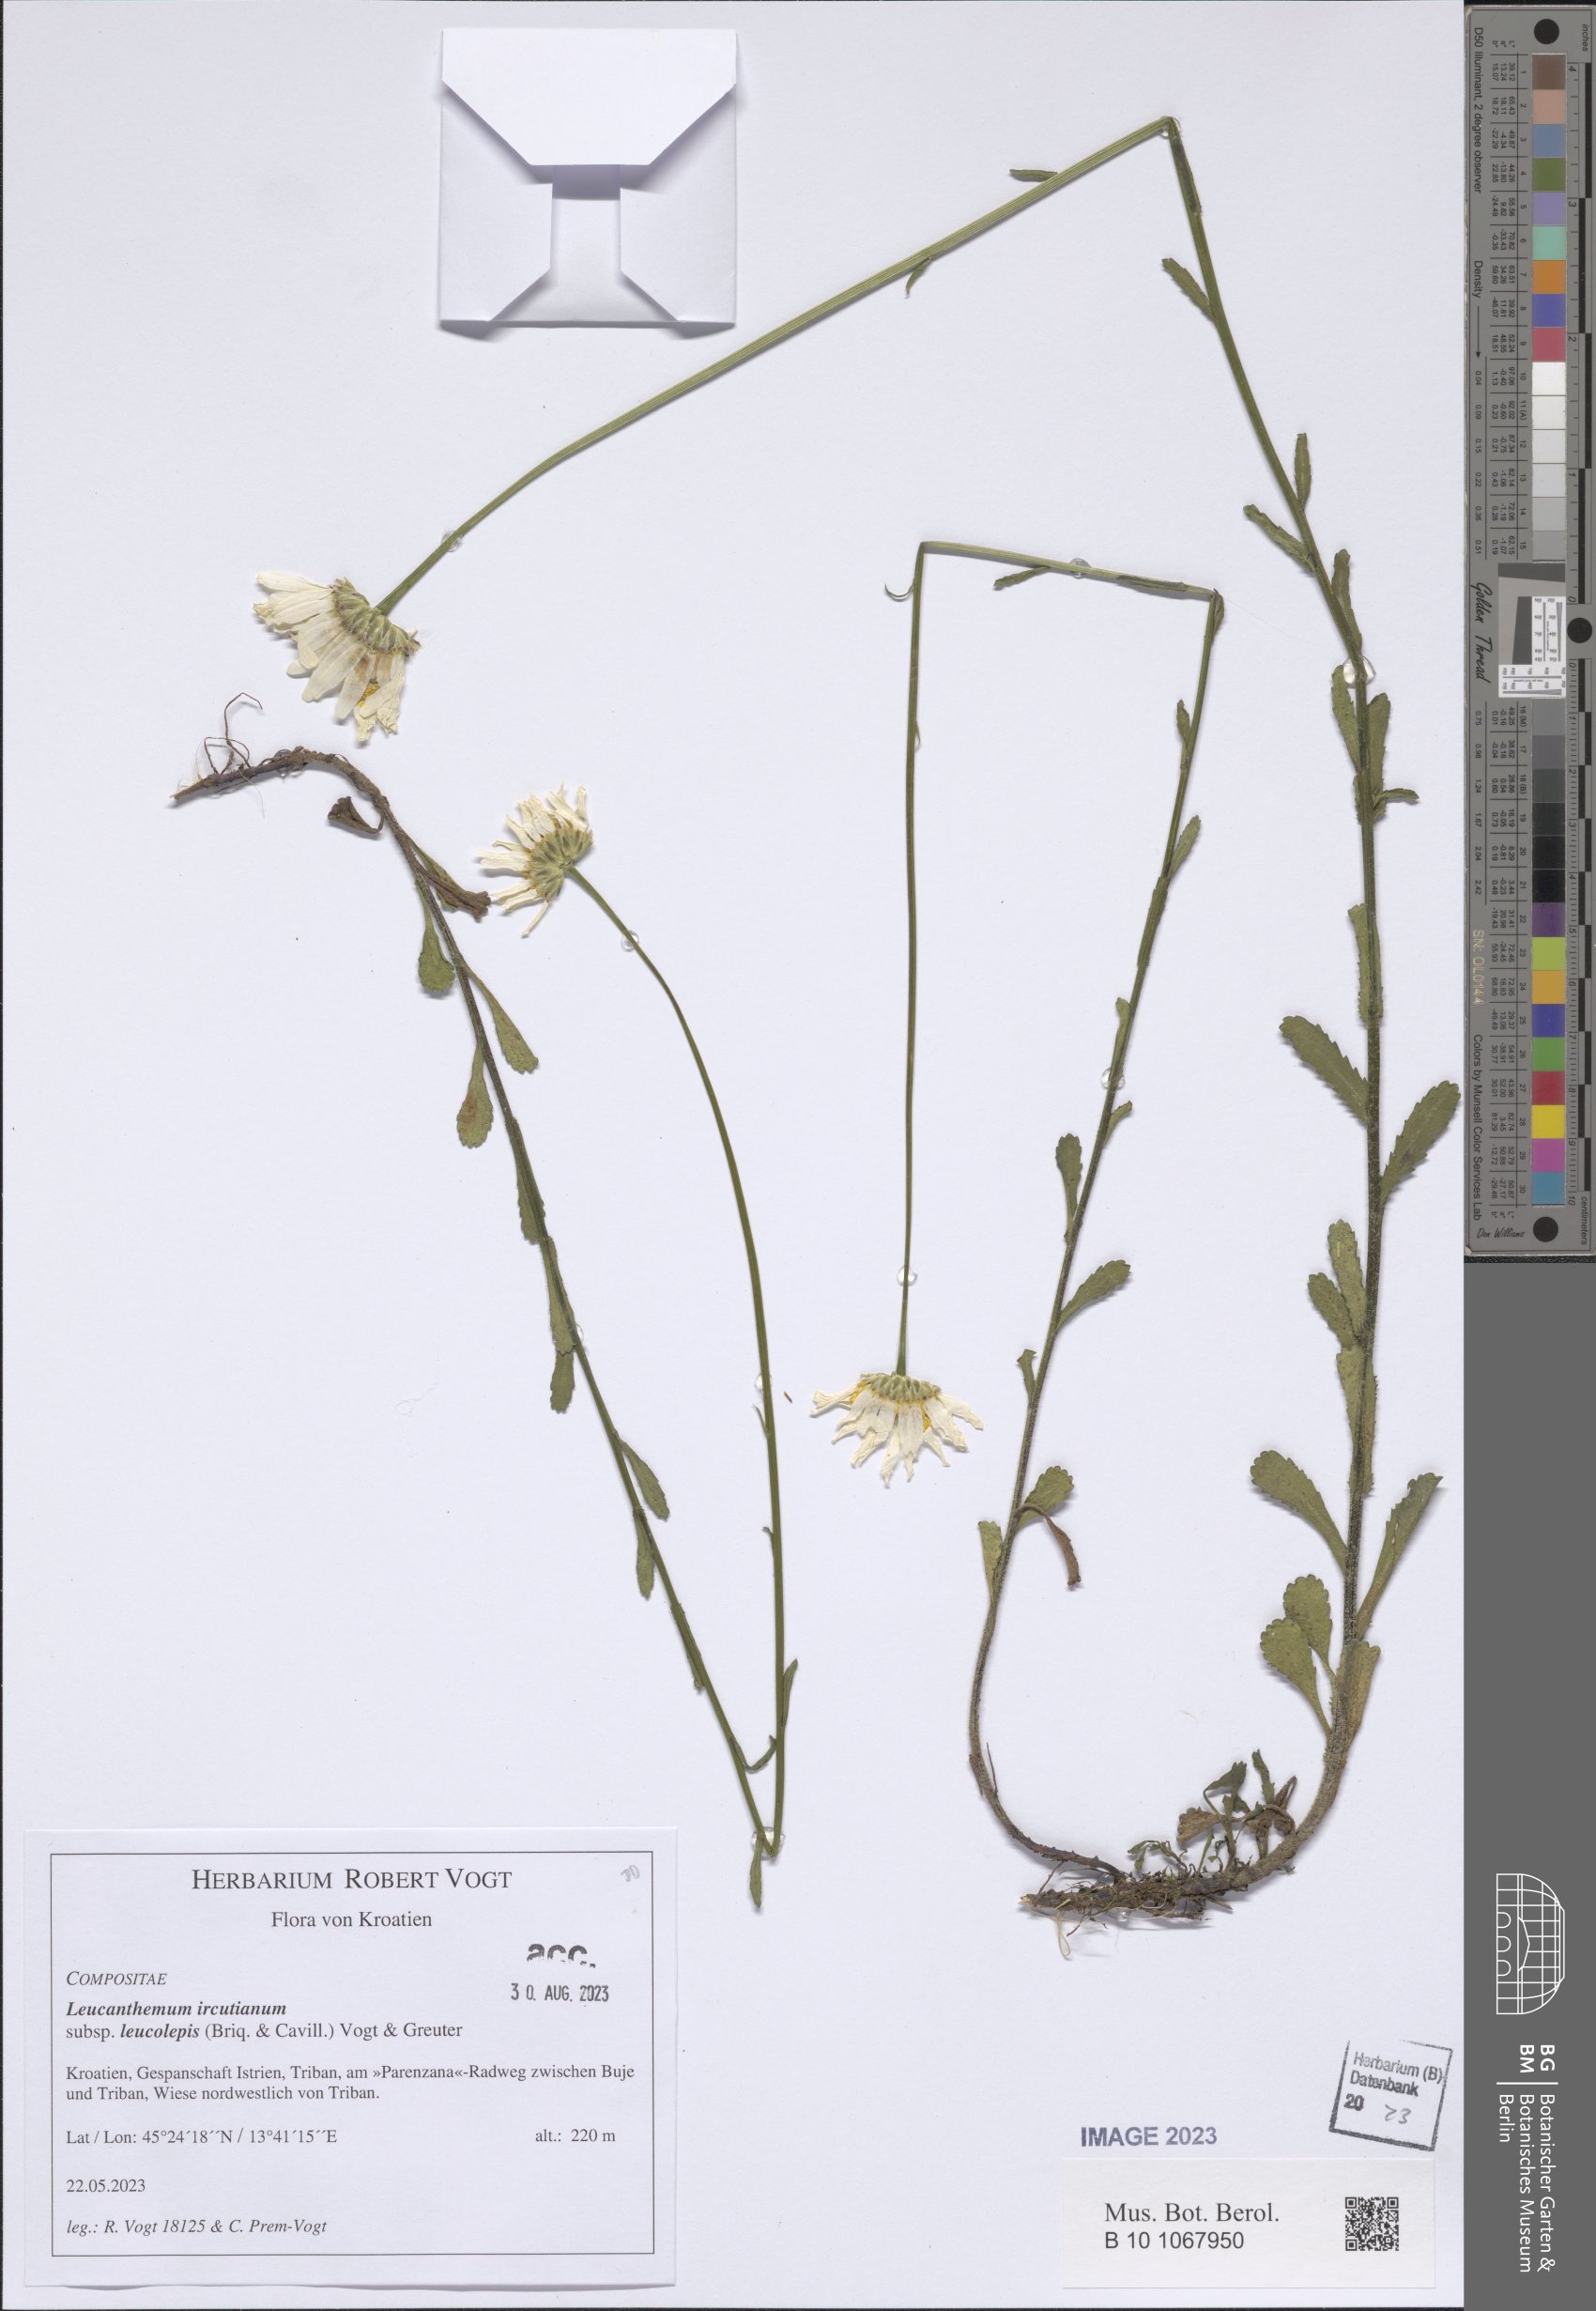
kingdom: Plantae
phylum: Tracheophyta
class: Magnoliopsida
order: Asterales
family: Asteraceae
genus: Leucanthemum
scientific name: Leucanthemum ircutianum
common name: Daisy
